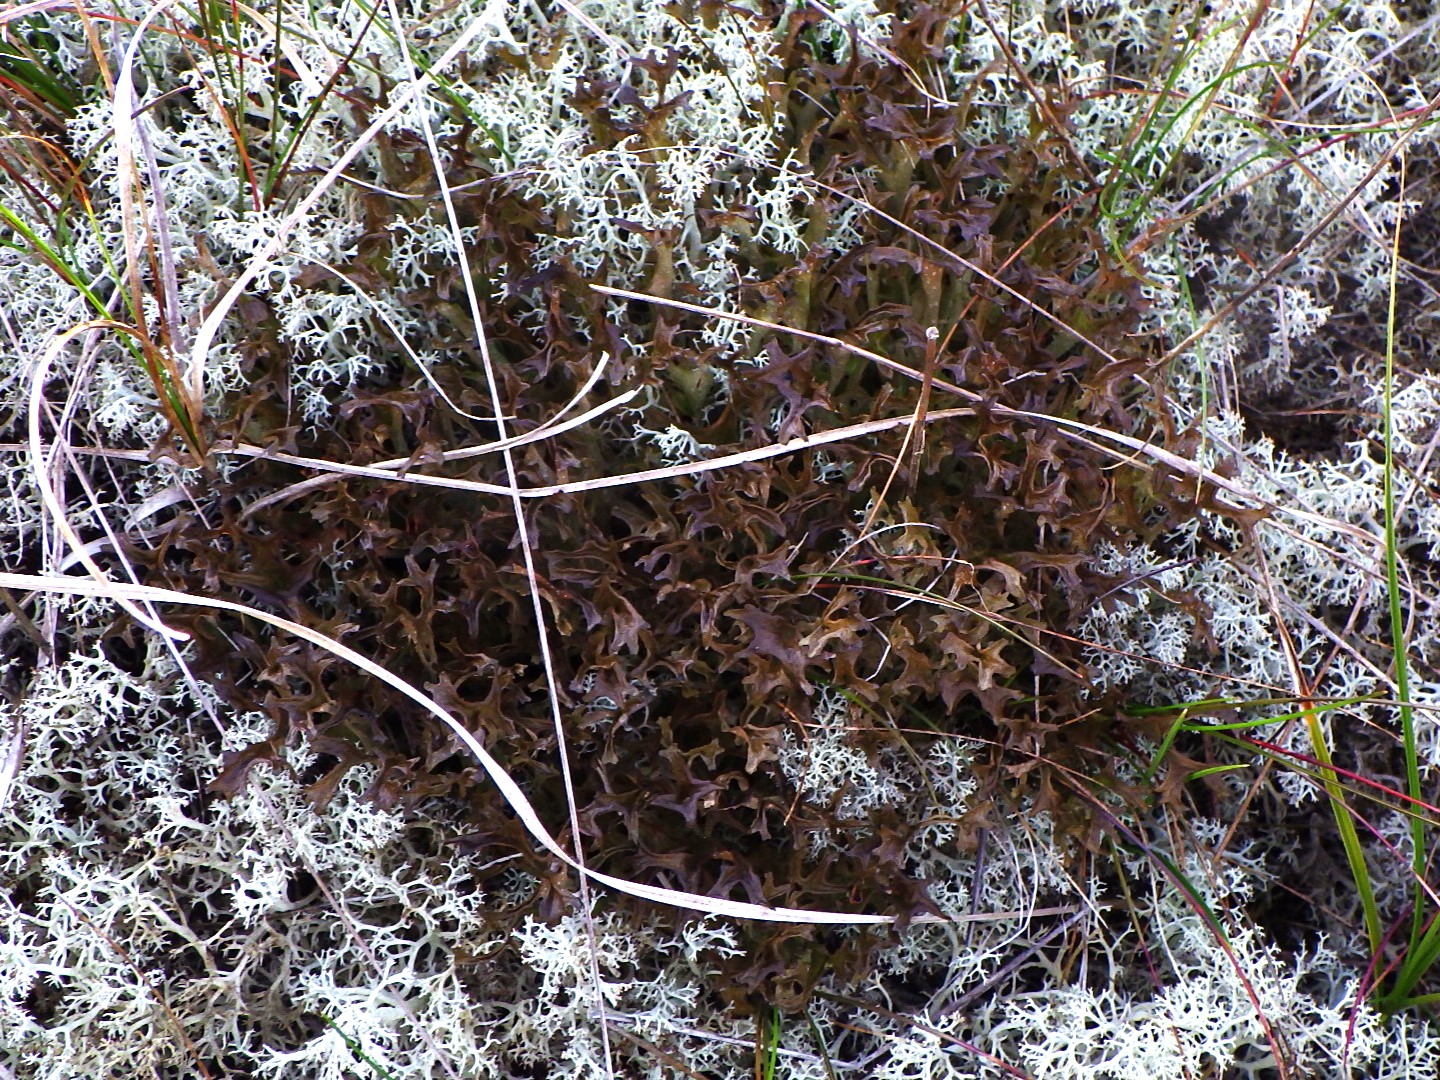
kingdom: Fungi
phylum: Ascomycota
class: Lecanoromycetes
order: Lecanorales
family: Parmeliaceae
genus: Cetraria
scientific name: Cetraria islandica
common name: islandsk kruslav
